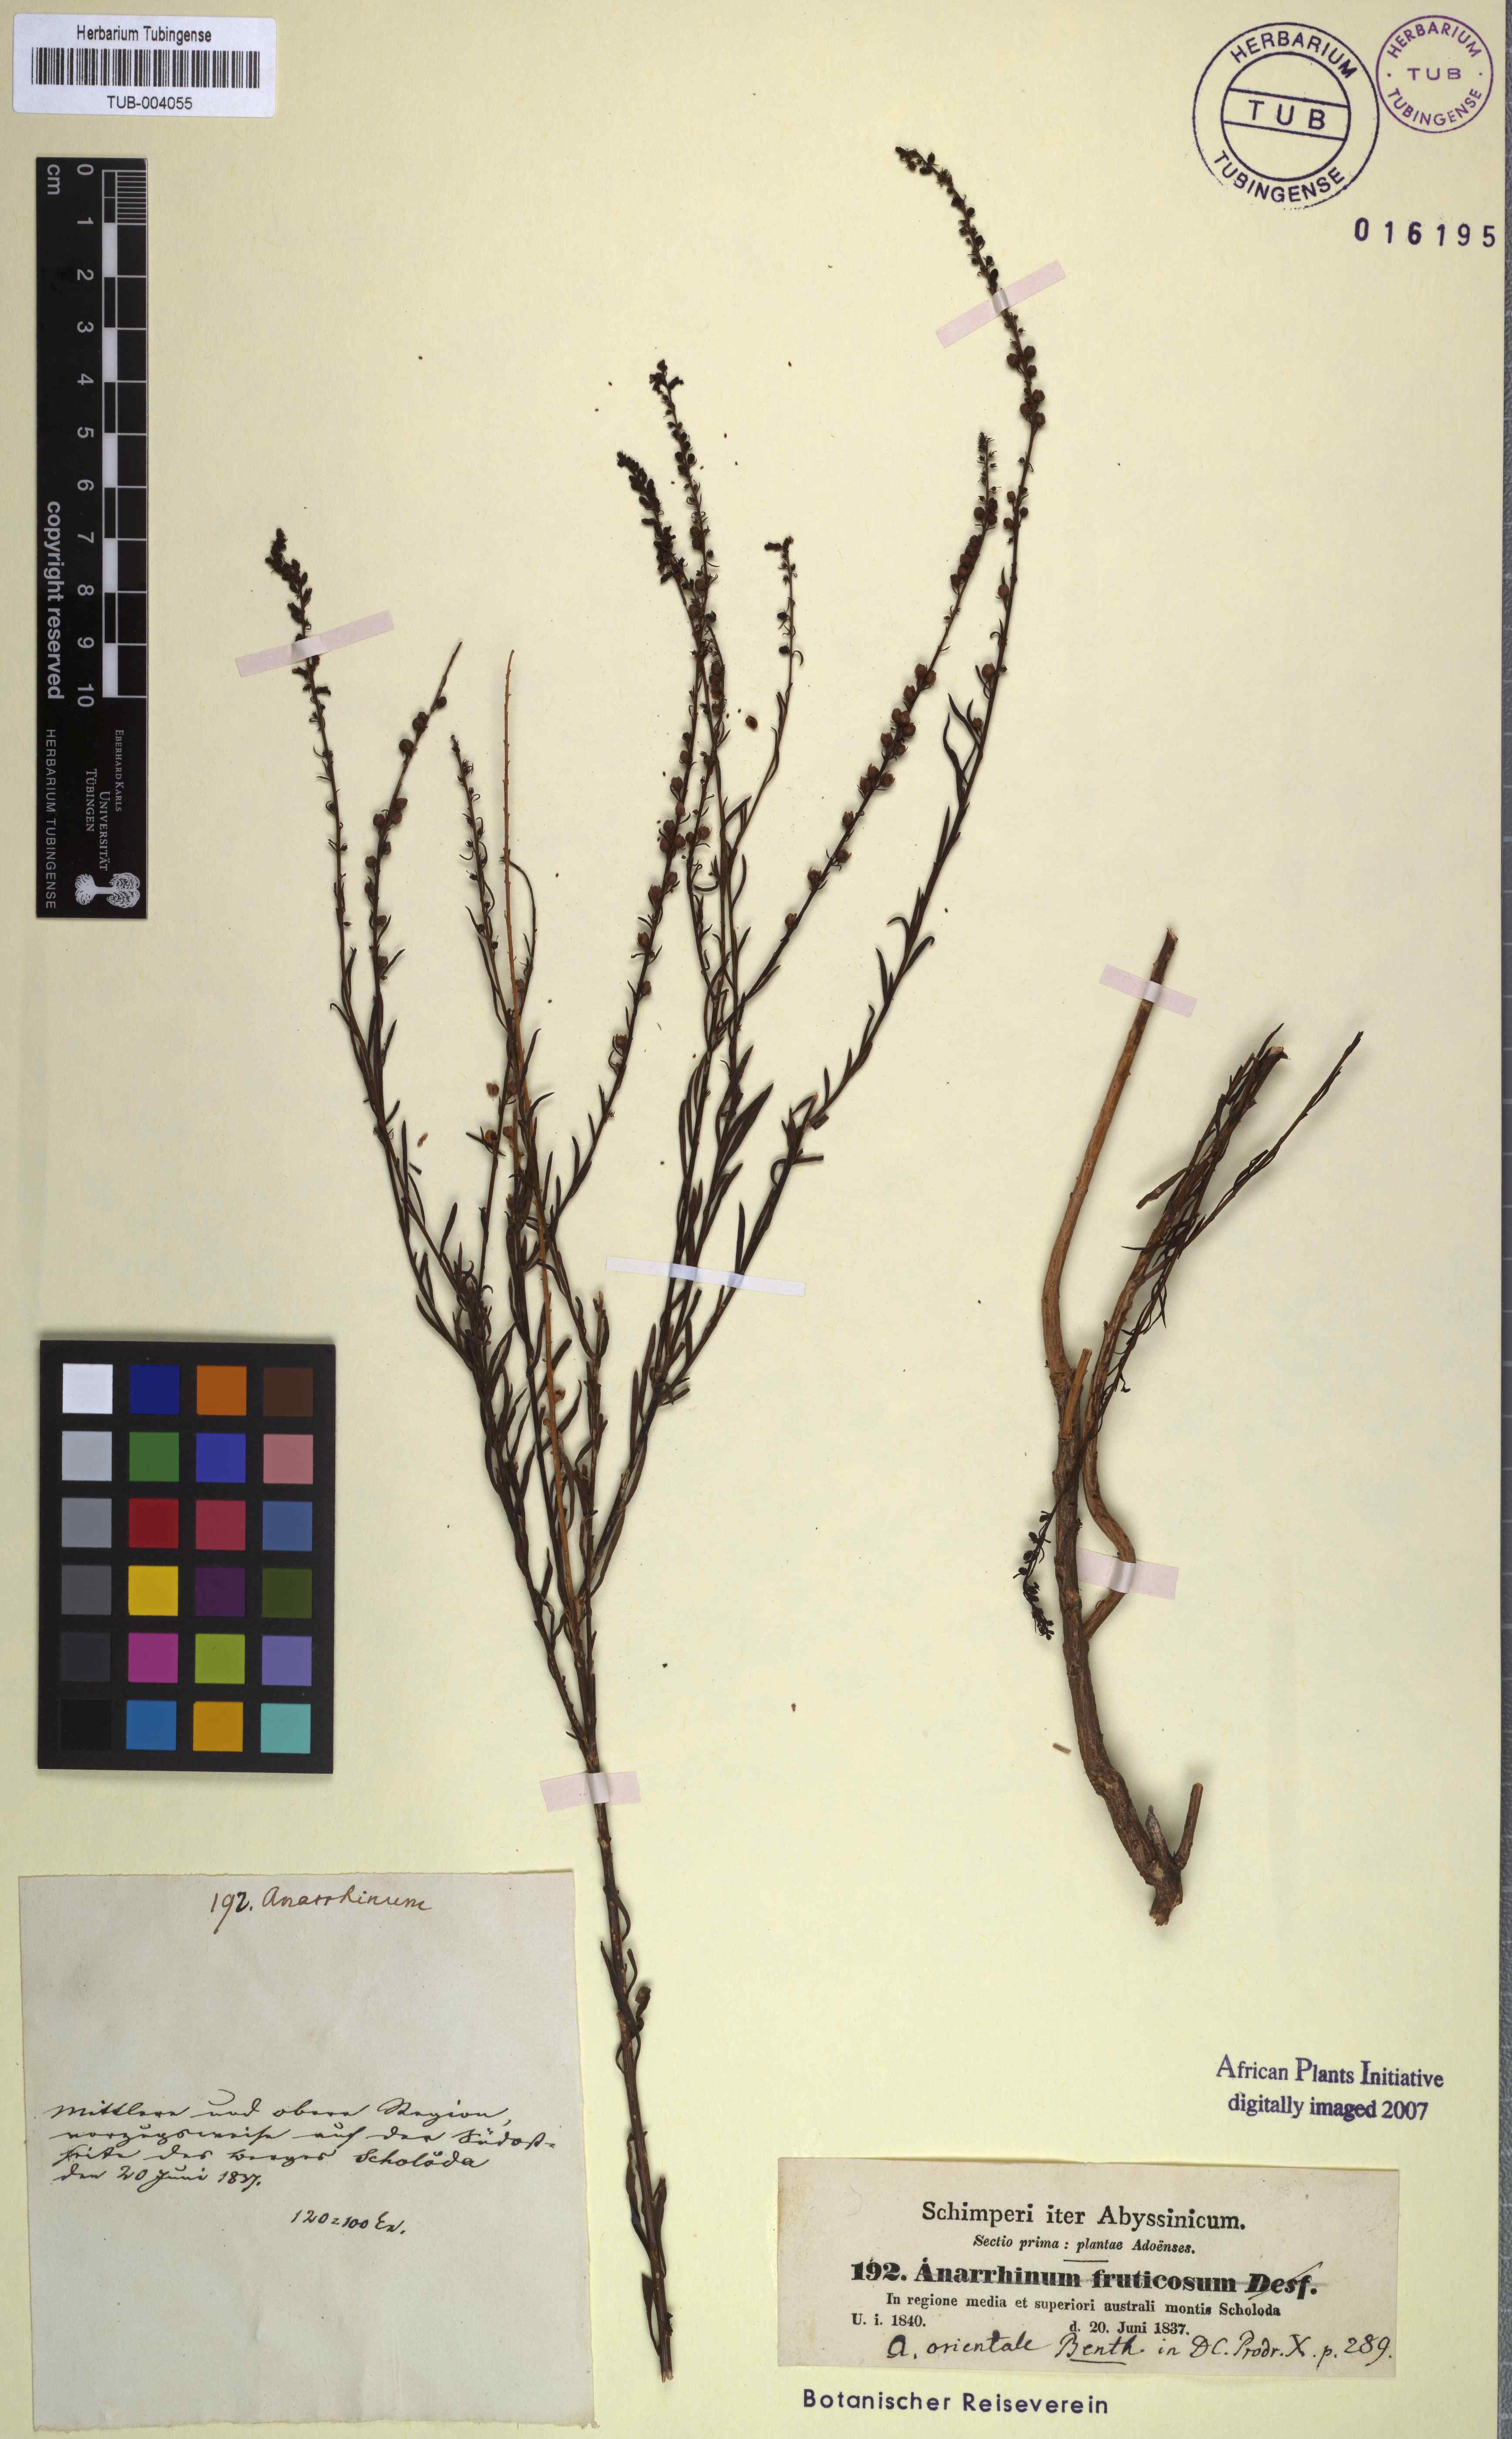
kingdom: Plantae
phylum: Tracheophyta
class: Magnoliopsida
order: Lamiales
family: Plantaginaceae
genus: Anarrhinum
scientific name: Anarrhinum forskaohlii
